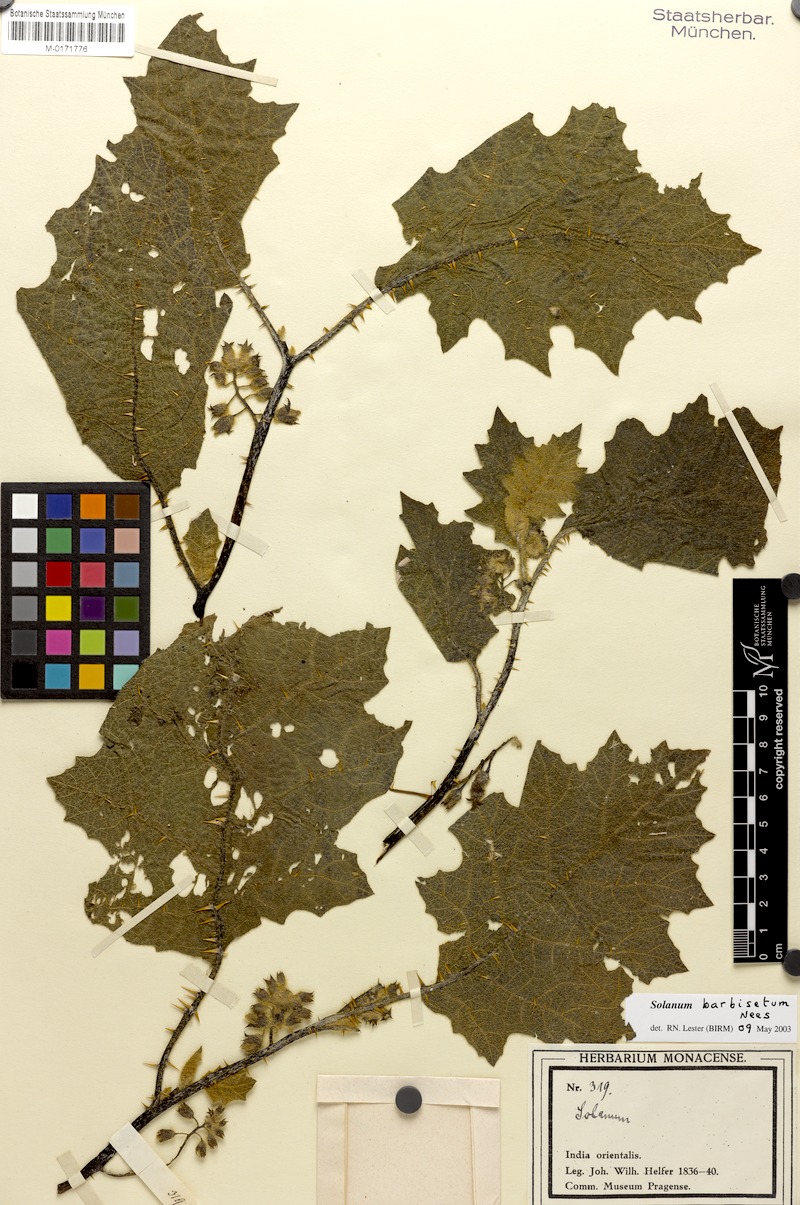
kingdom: Plantae
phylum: Tracheophyta
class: Magnoliopsida
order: Solanales
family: Solanaceae
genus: Solanum
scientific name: Solanum barbisetum
